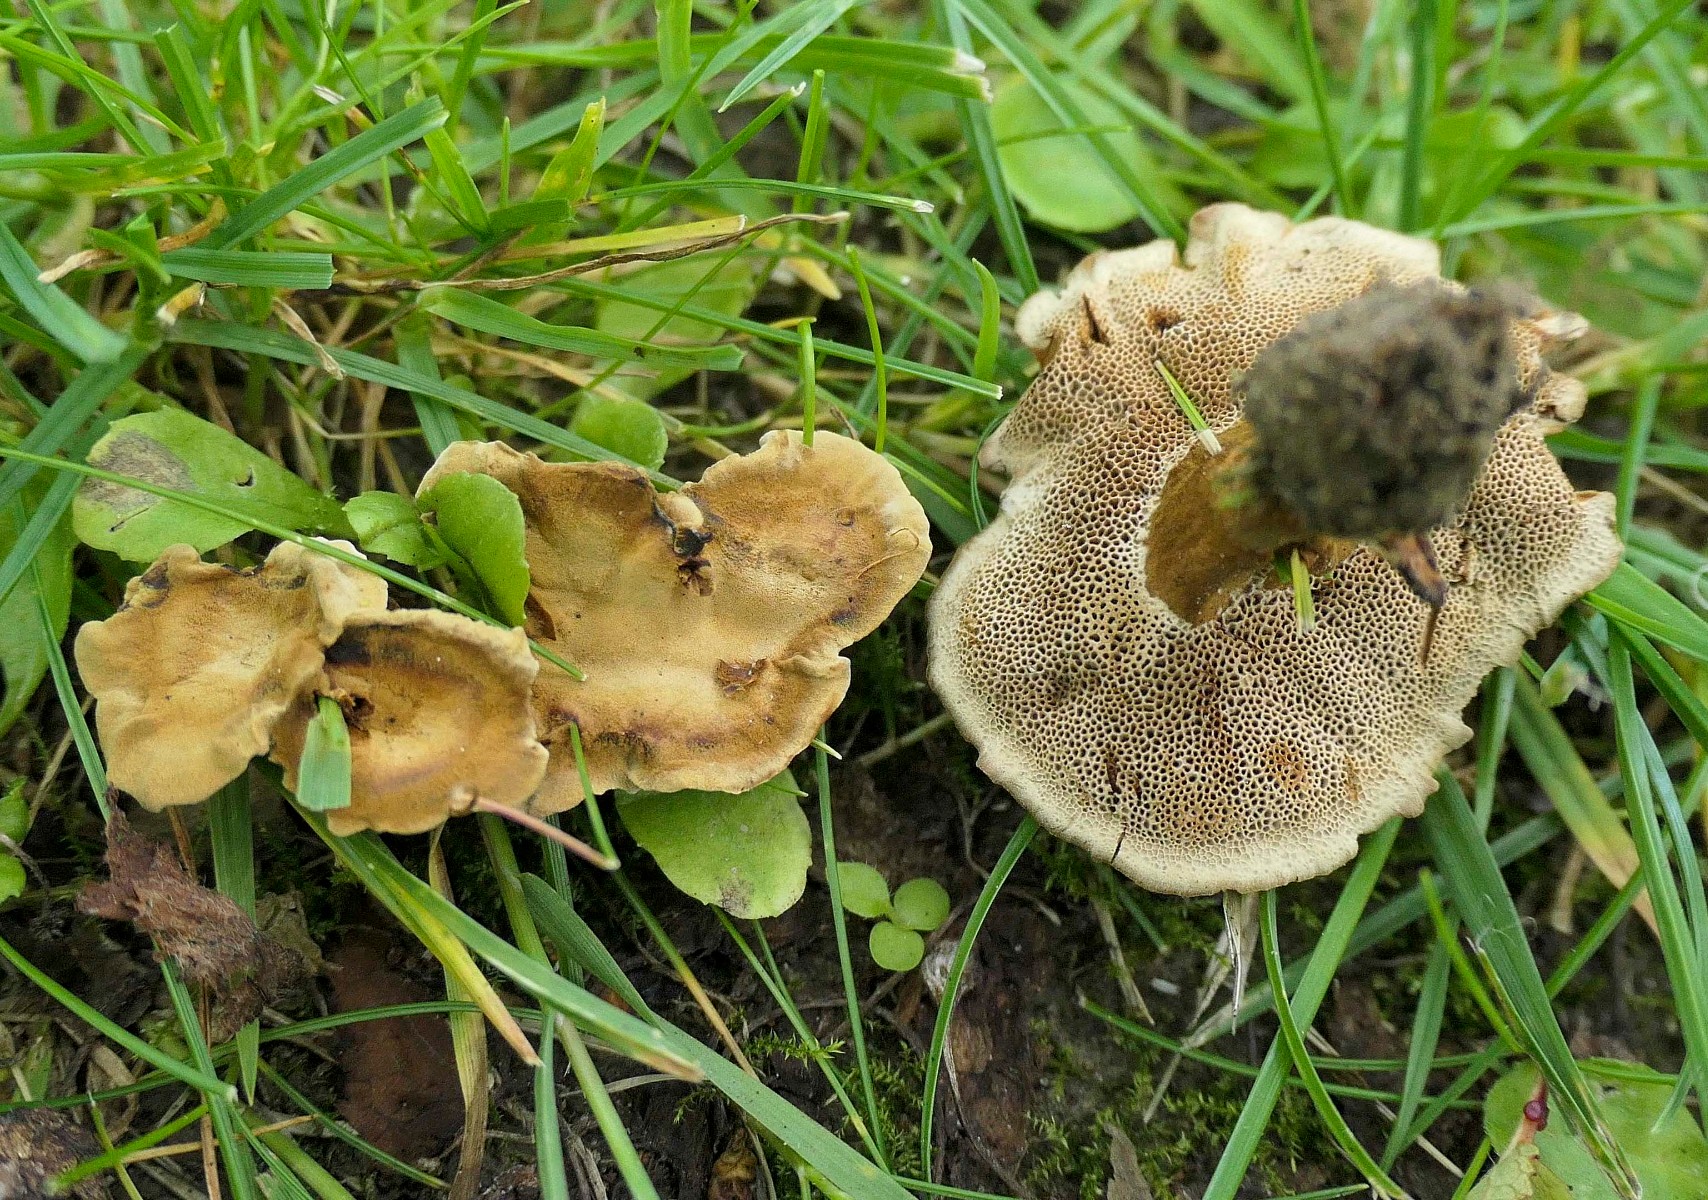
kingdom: Fungi
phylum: Basidiomycota
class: Agaricomycetes
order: Hymenochaetales
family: Hymenochaetaceae
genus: Coltricia
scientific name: Coltricia confluens
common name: park-sandporesvamp
